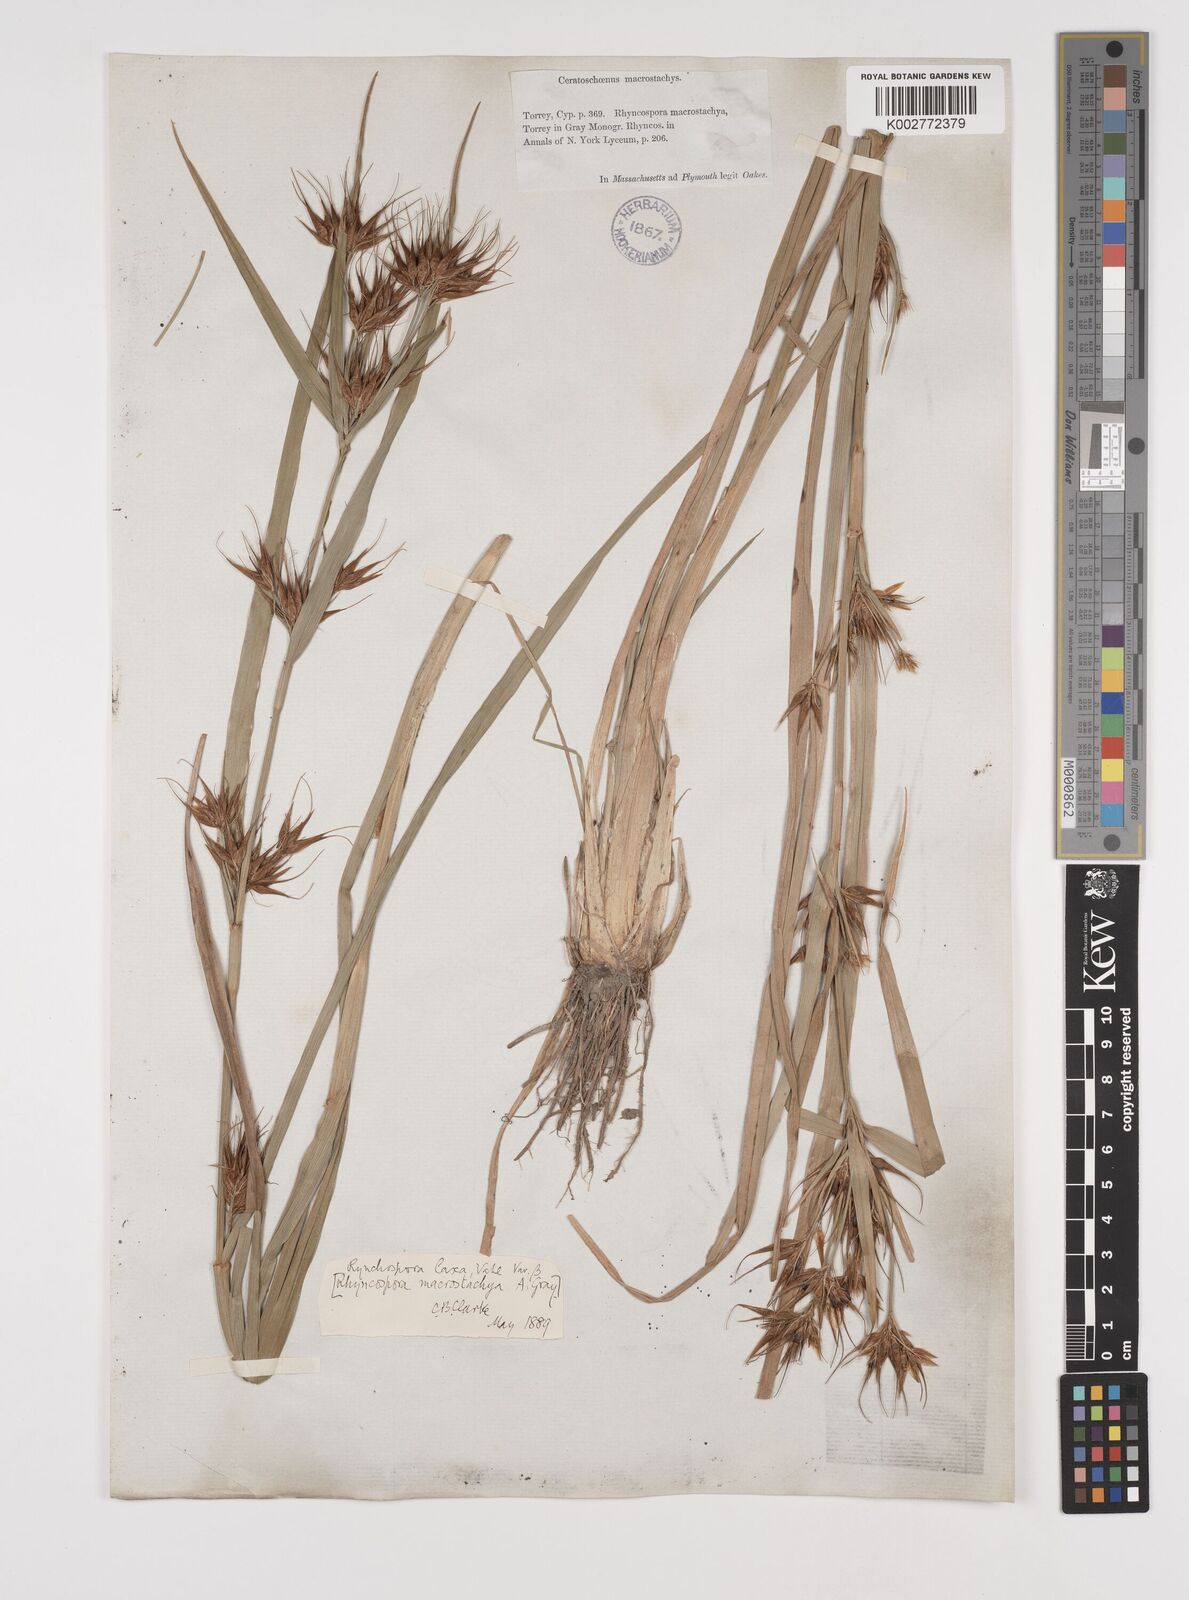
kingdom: Plantae
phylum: Tracheophyta
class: Liliopsida
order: Poales
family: Cyperaceae
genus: Rhynchospora
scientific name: Rhynchospora corniculata
